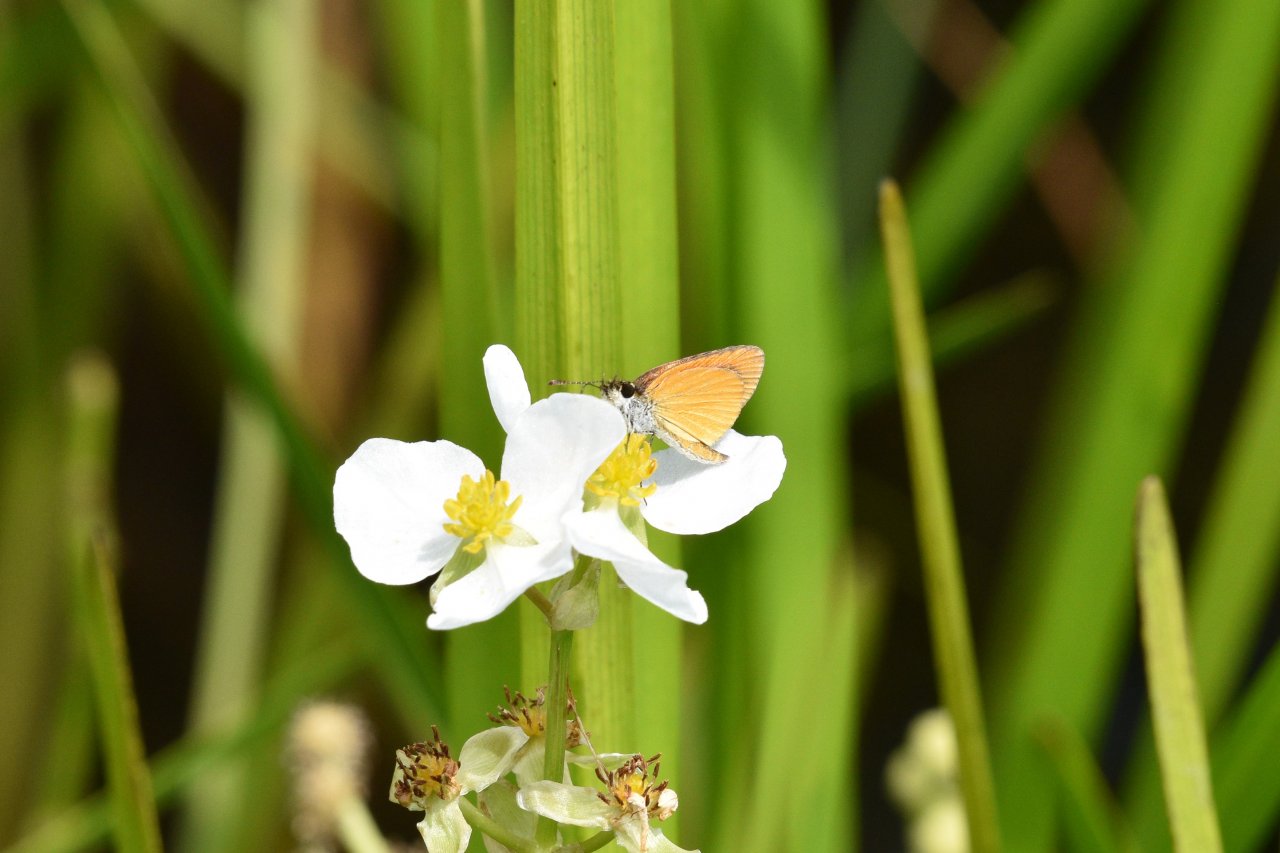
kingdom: Animalia
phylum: Arthropoda
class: Insecta
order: Lepidoptera
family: Hesperiidae
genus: Ancyloxypha
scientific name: Ancyloxypha numitor
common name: Least Skipper
